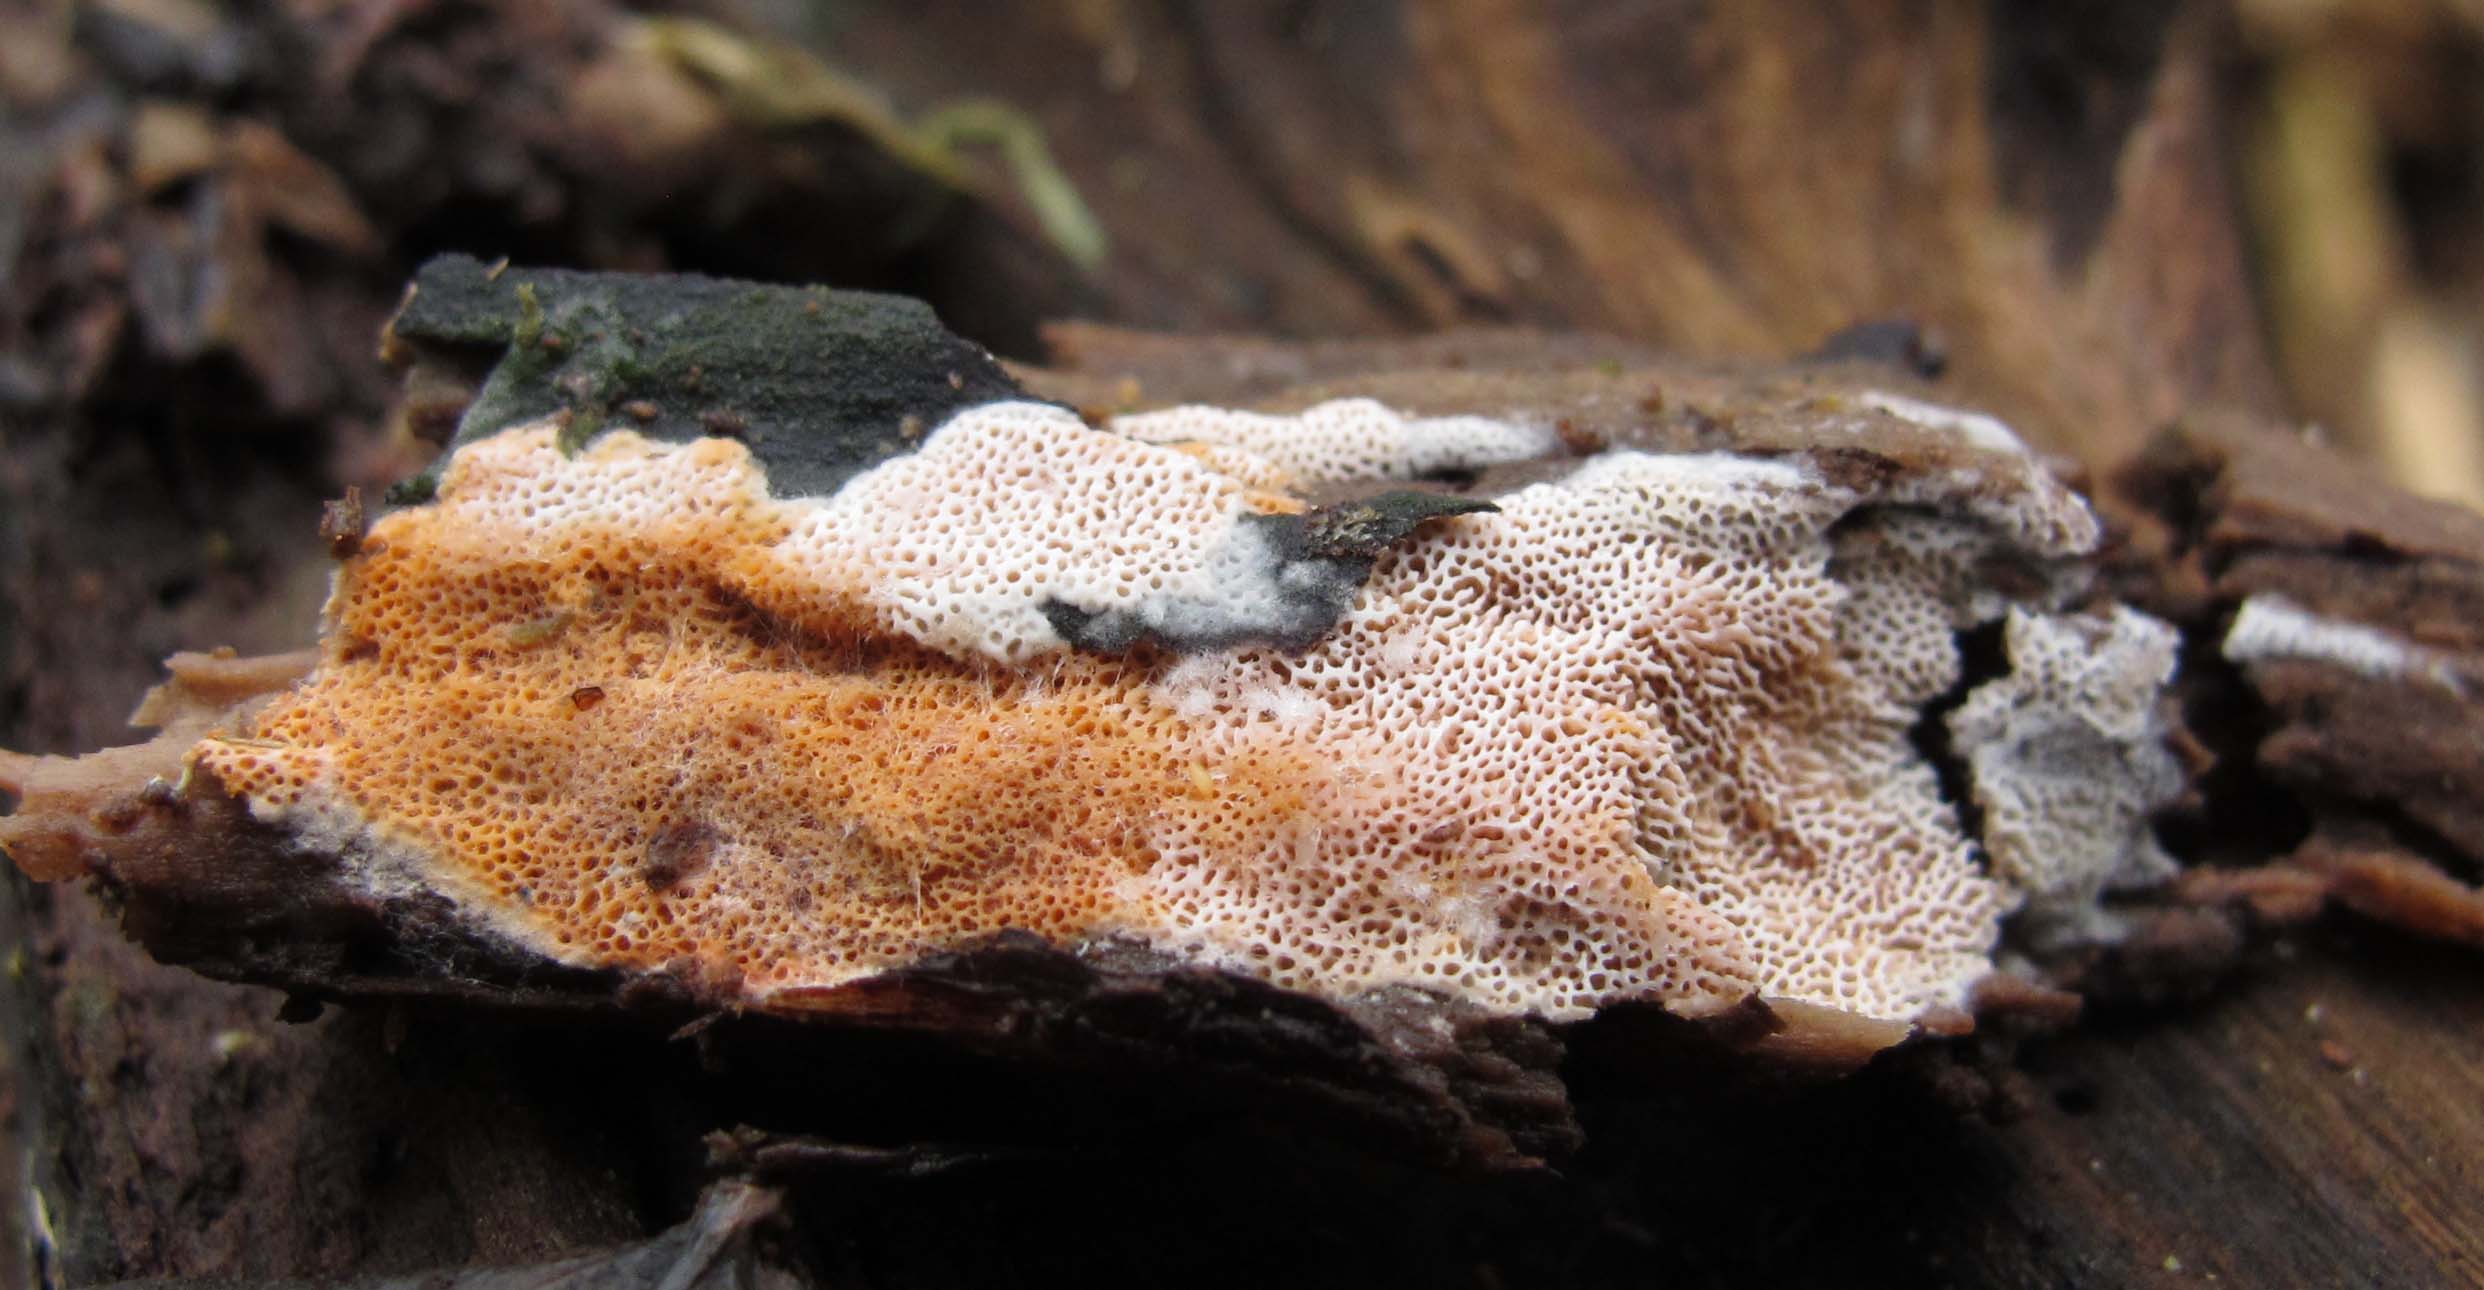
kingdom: Fungi
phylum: Basidiomycota
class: Agaricomycetes
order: Polyporales
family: Irpicaceae
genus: Ceriporia
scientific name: Ceriporia purpurea
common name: purpur-voksporesvamp
